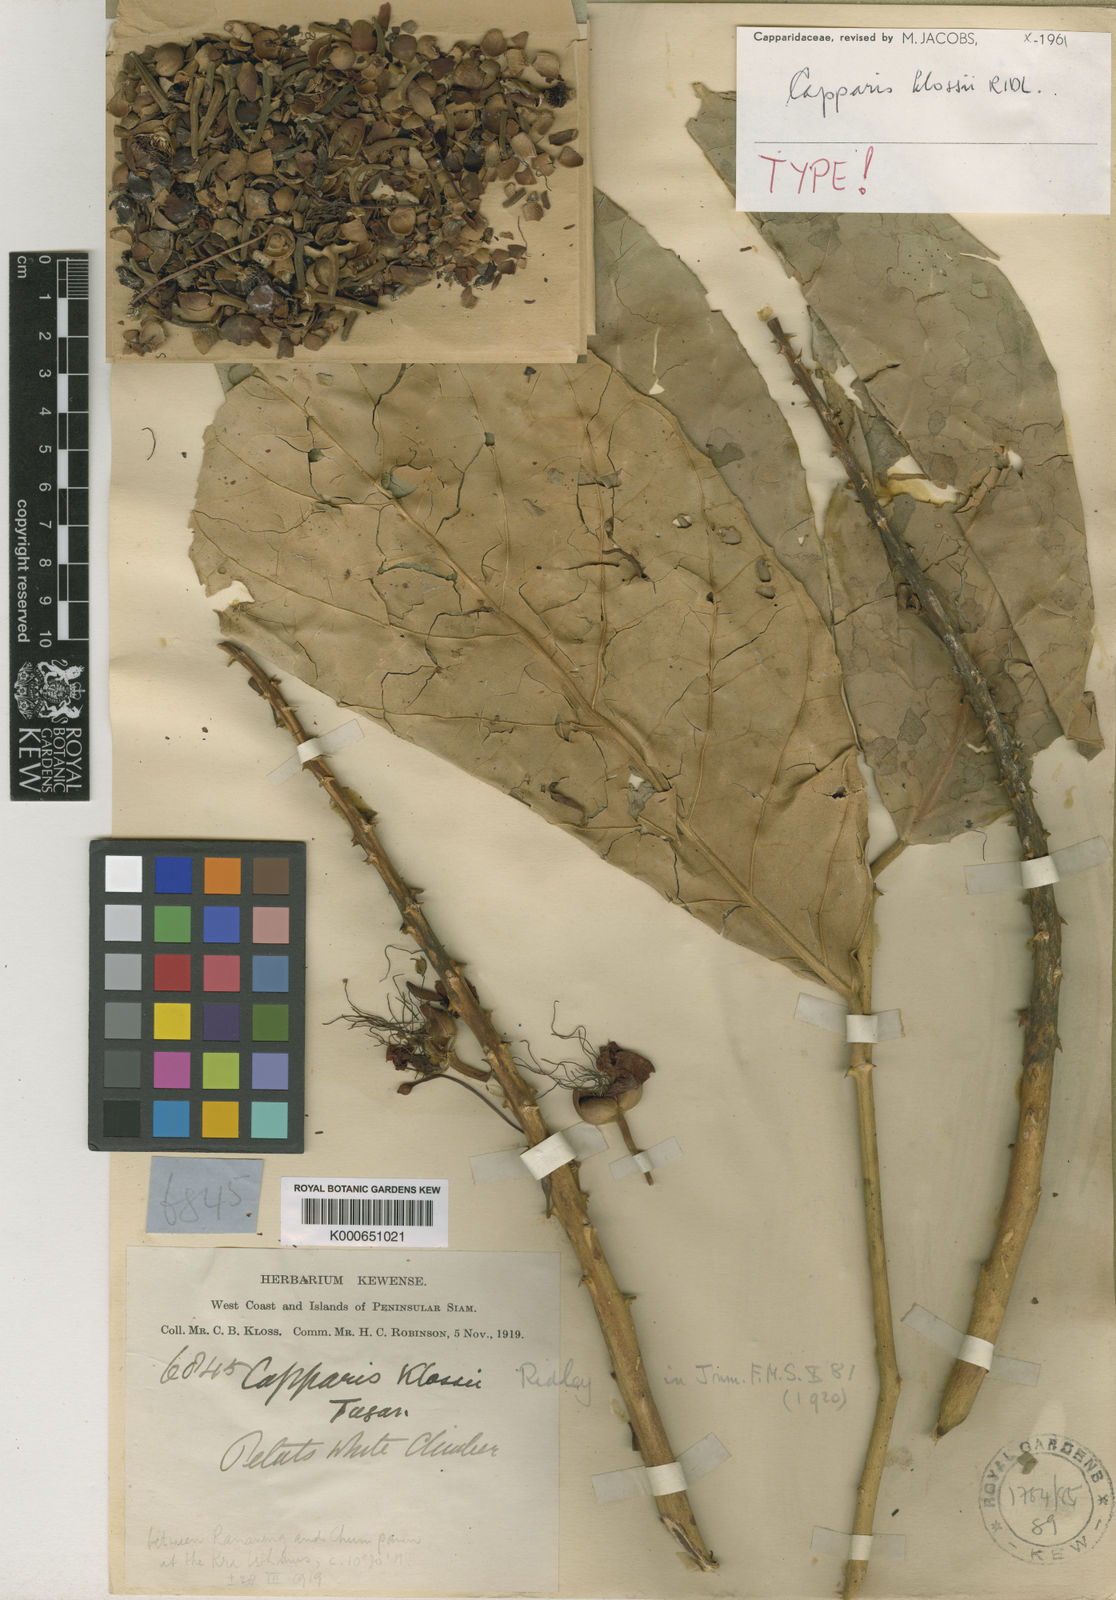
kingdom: Plantae
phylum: Tracheophyta
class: Magnoliopsida
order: Brassicales
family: Capparaceae
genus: Capparis
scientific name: Capparis klossii
